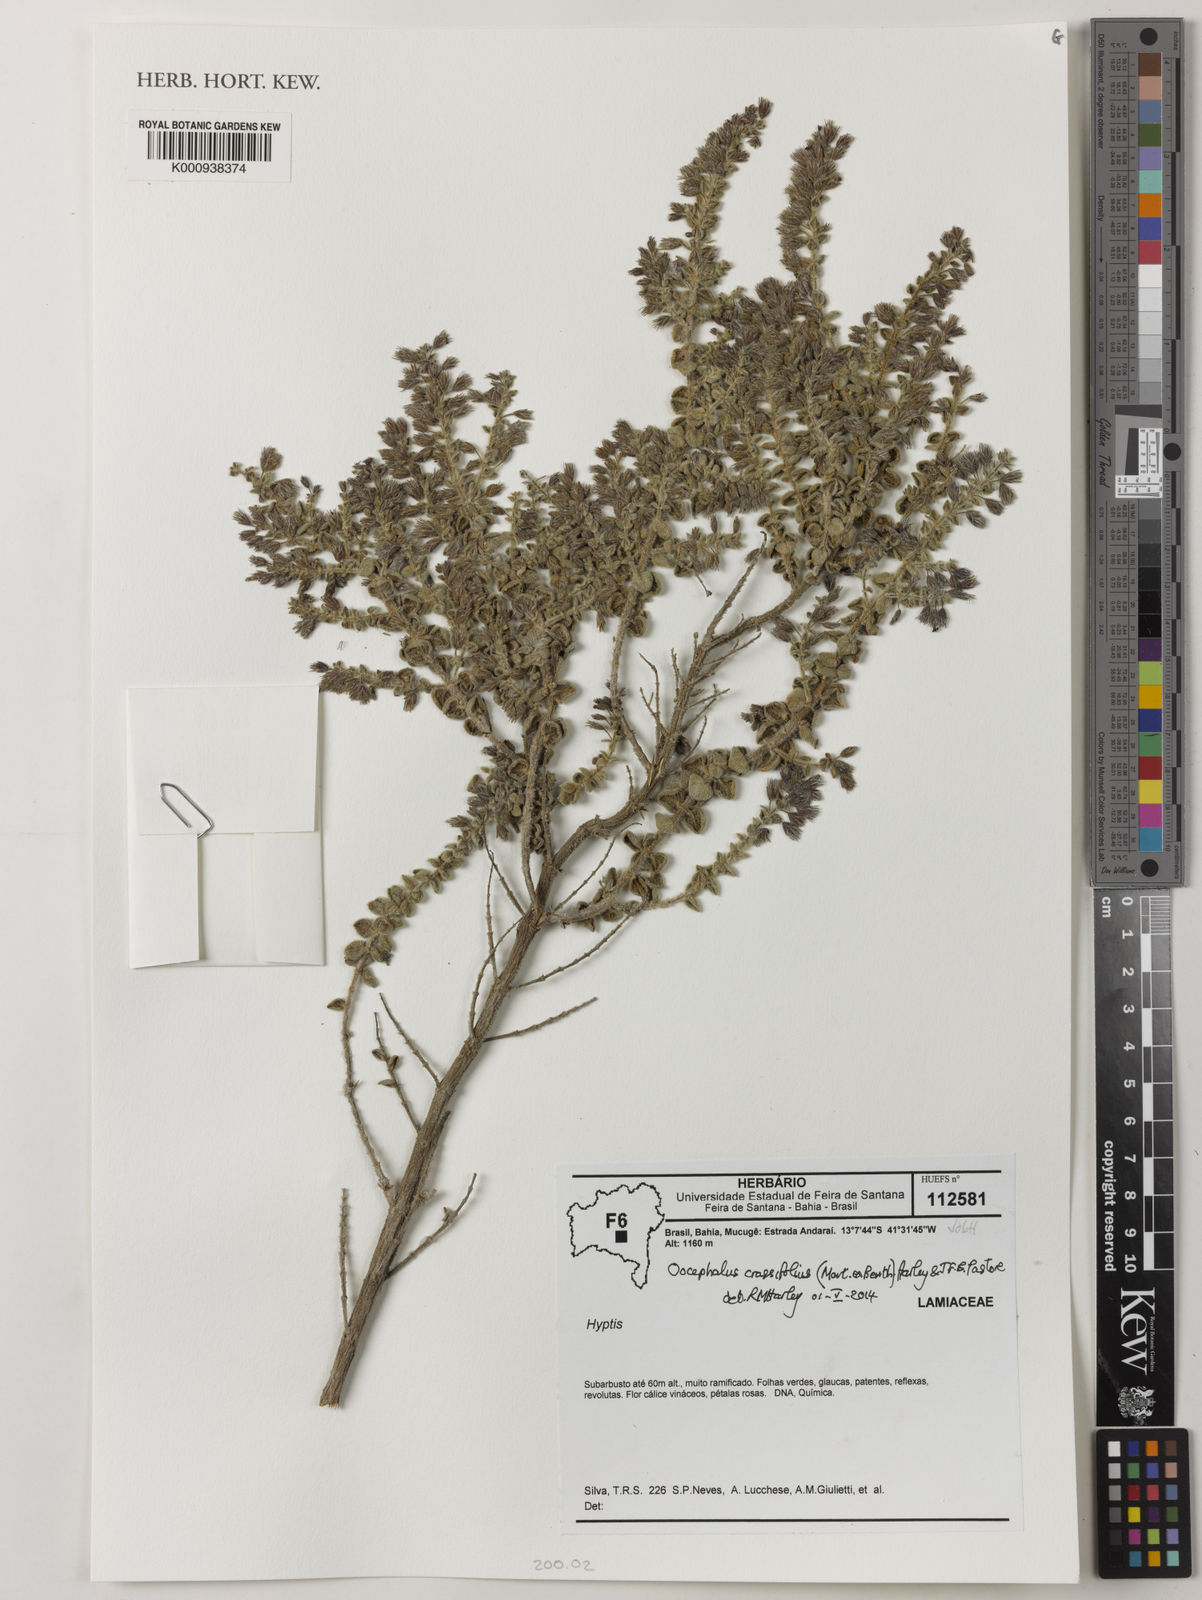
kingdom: Plantae
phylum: Tracheophyta
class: Magnoliopsida
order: Lamiales
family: Lamiaceae
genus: Oocephalus
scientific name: Oocephalus crassifolius
